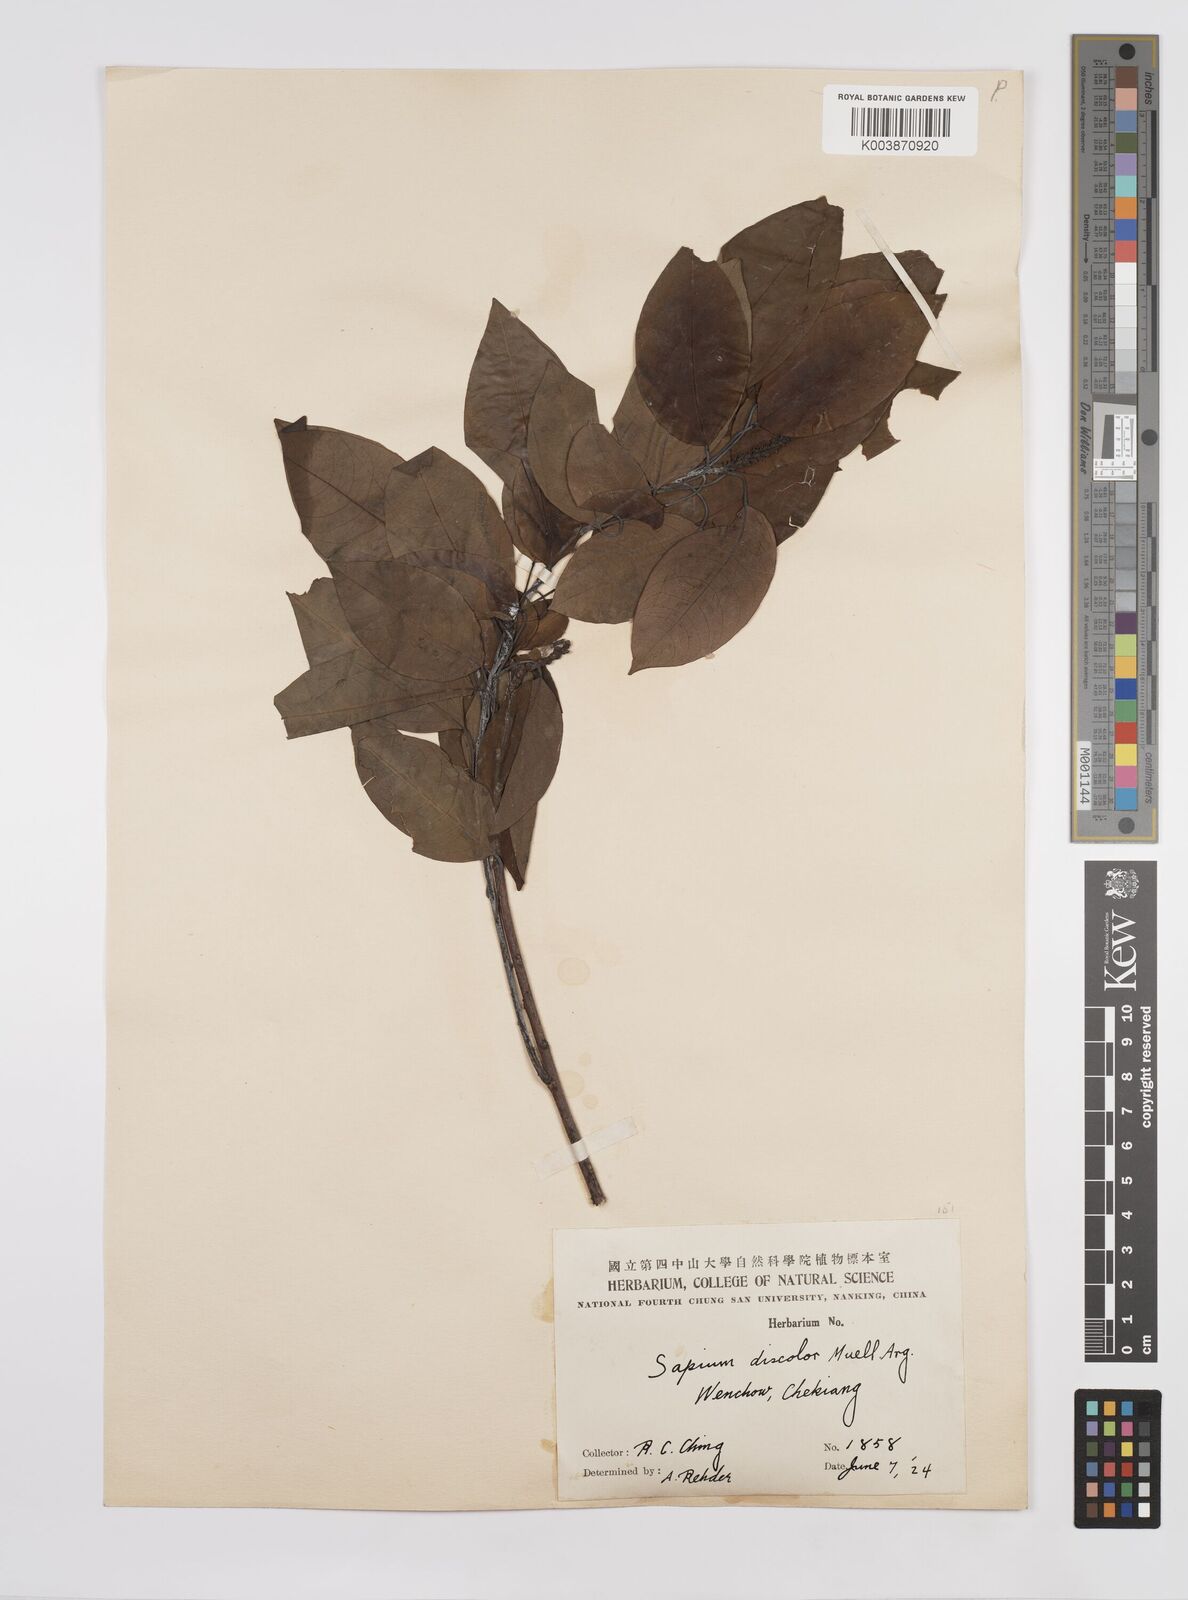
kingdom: Plantae
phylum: Tracheophyta
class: Magnoliopsida
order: Malpighiales
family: Euphorbiaceae
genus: Triadica
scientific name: Triadica cochinchinensis
